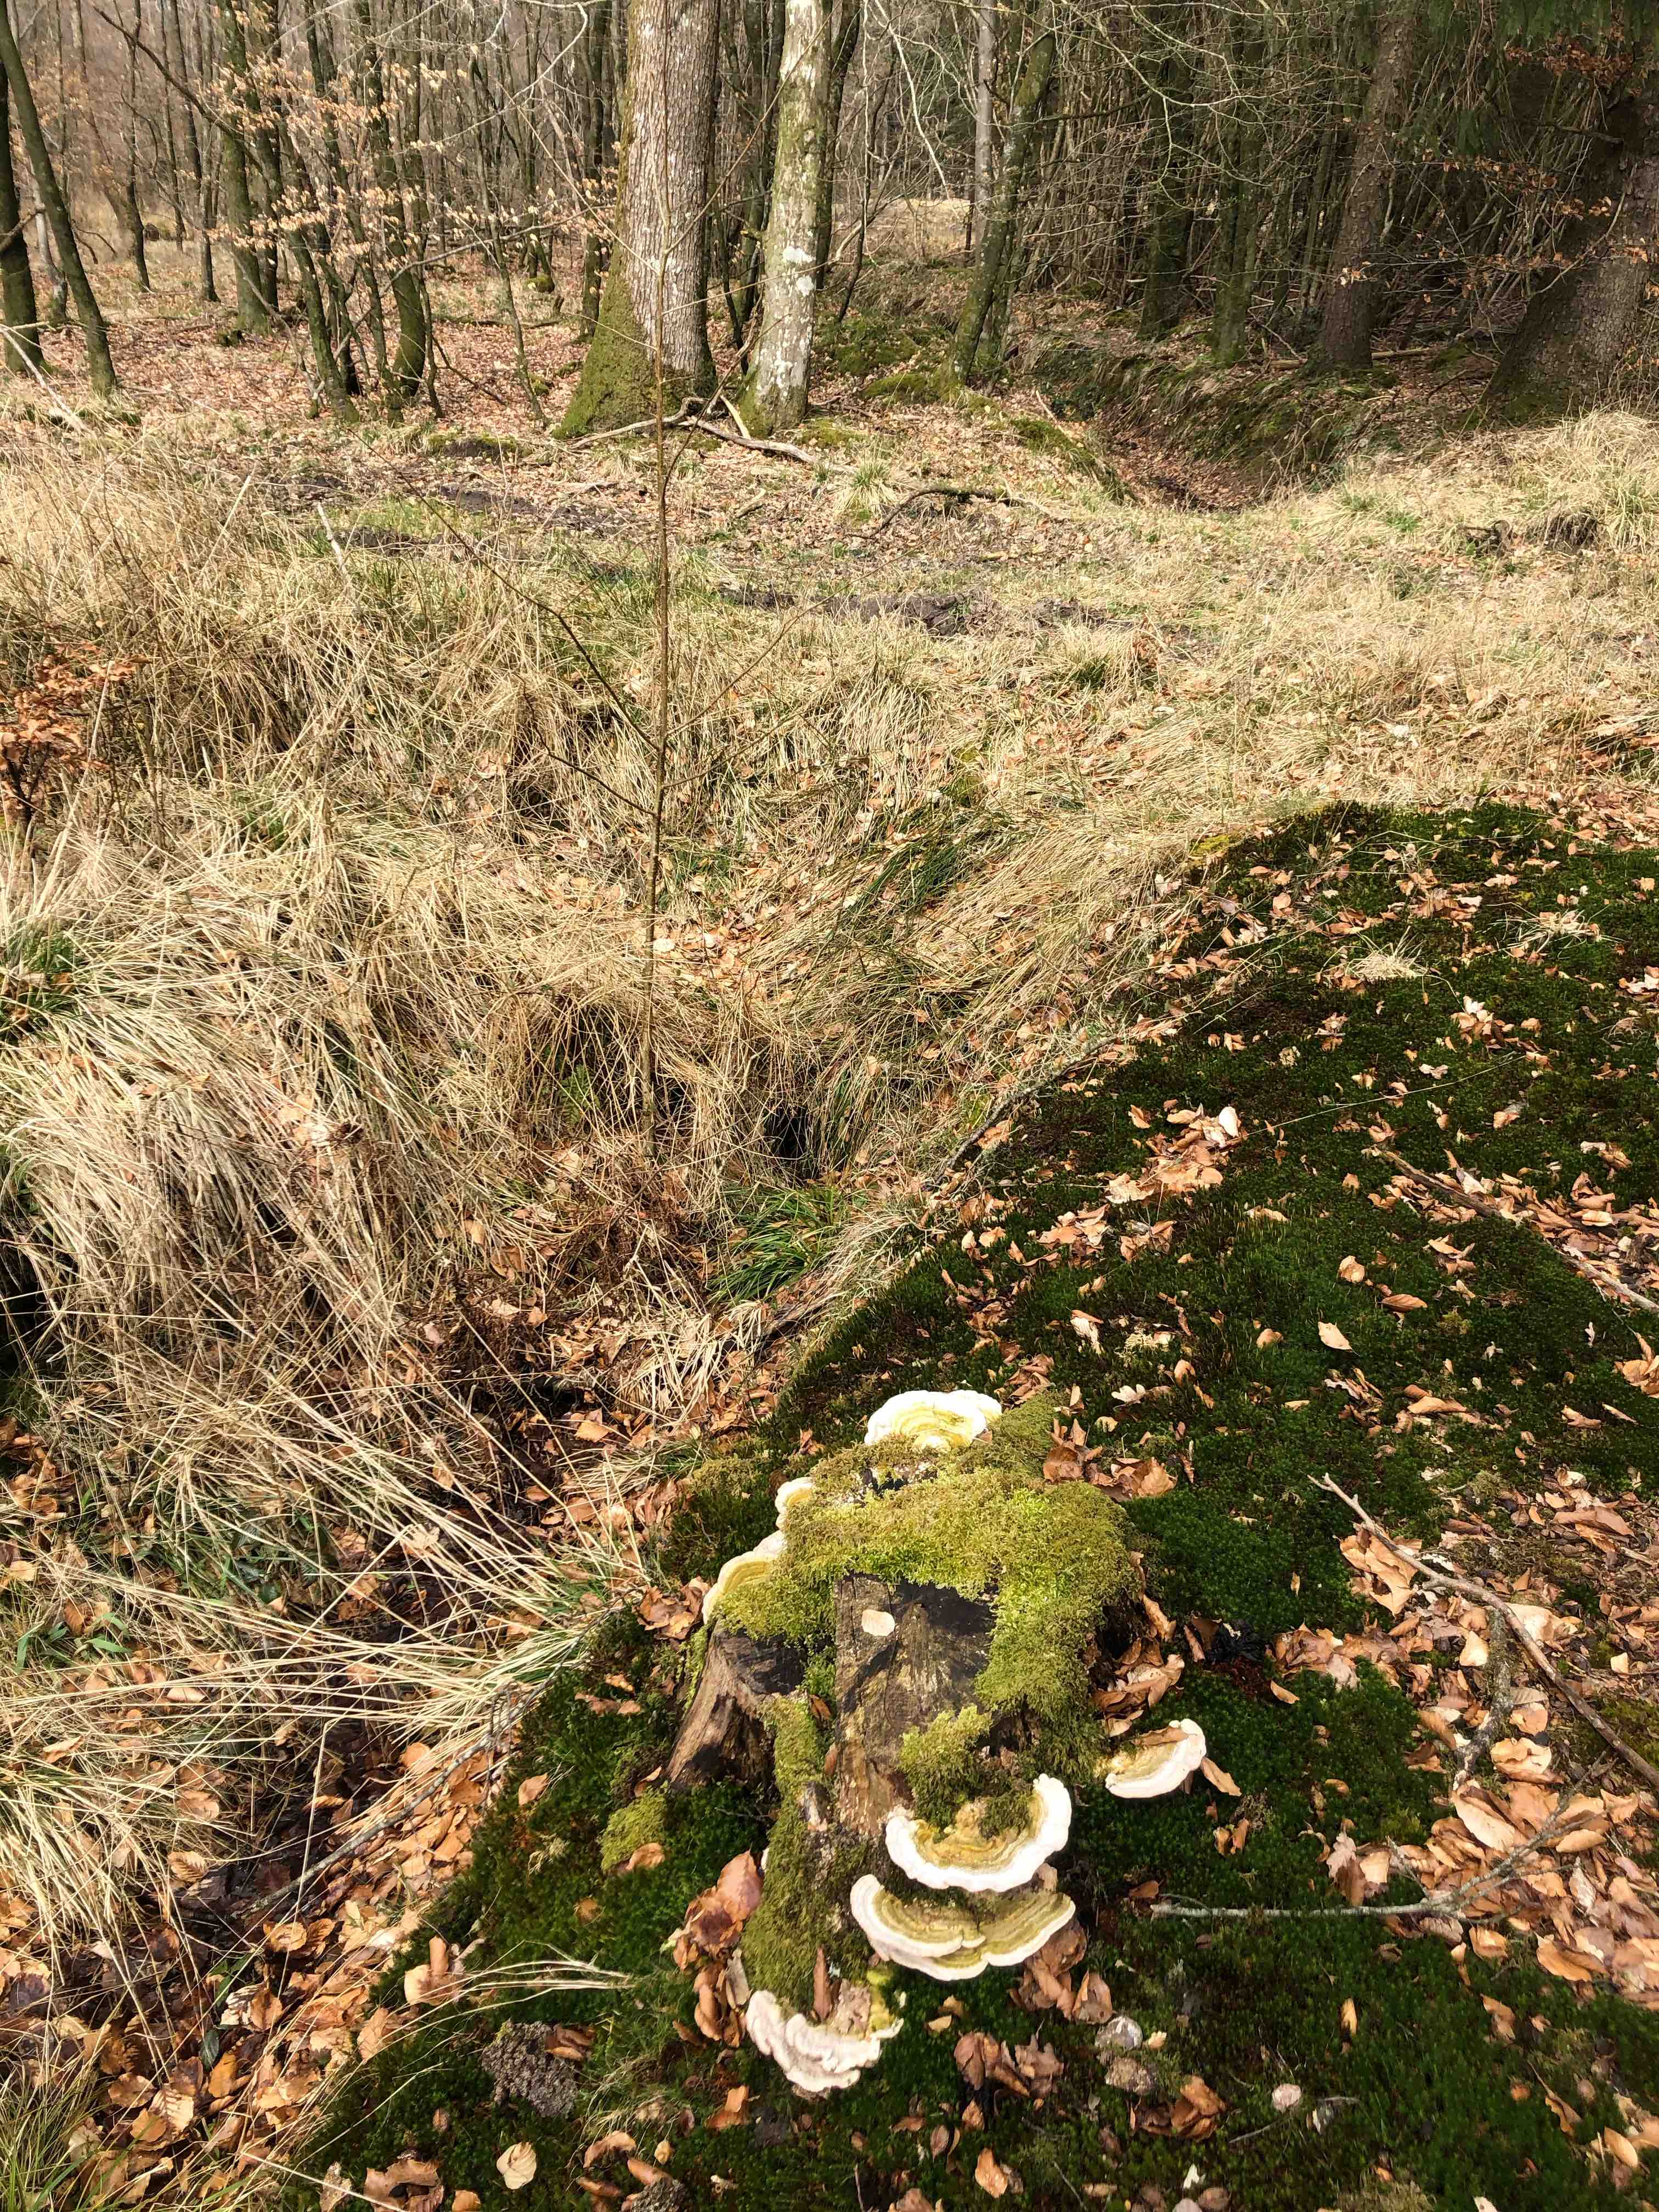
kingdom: Fungi
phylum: Basidiomycota
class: Agaricomycetes
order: Polyporales
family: Polyporaceae
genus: Trametes
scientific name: Trametes hirsuta
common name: håret læderporesvamp
